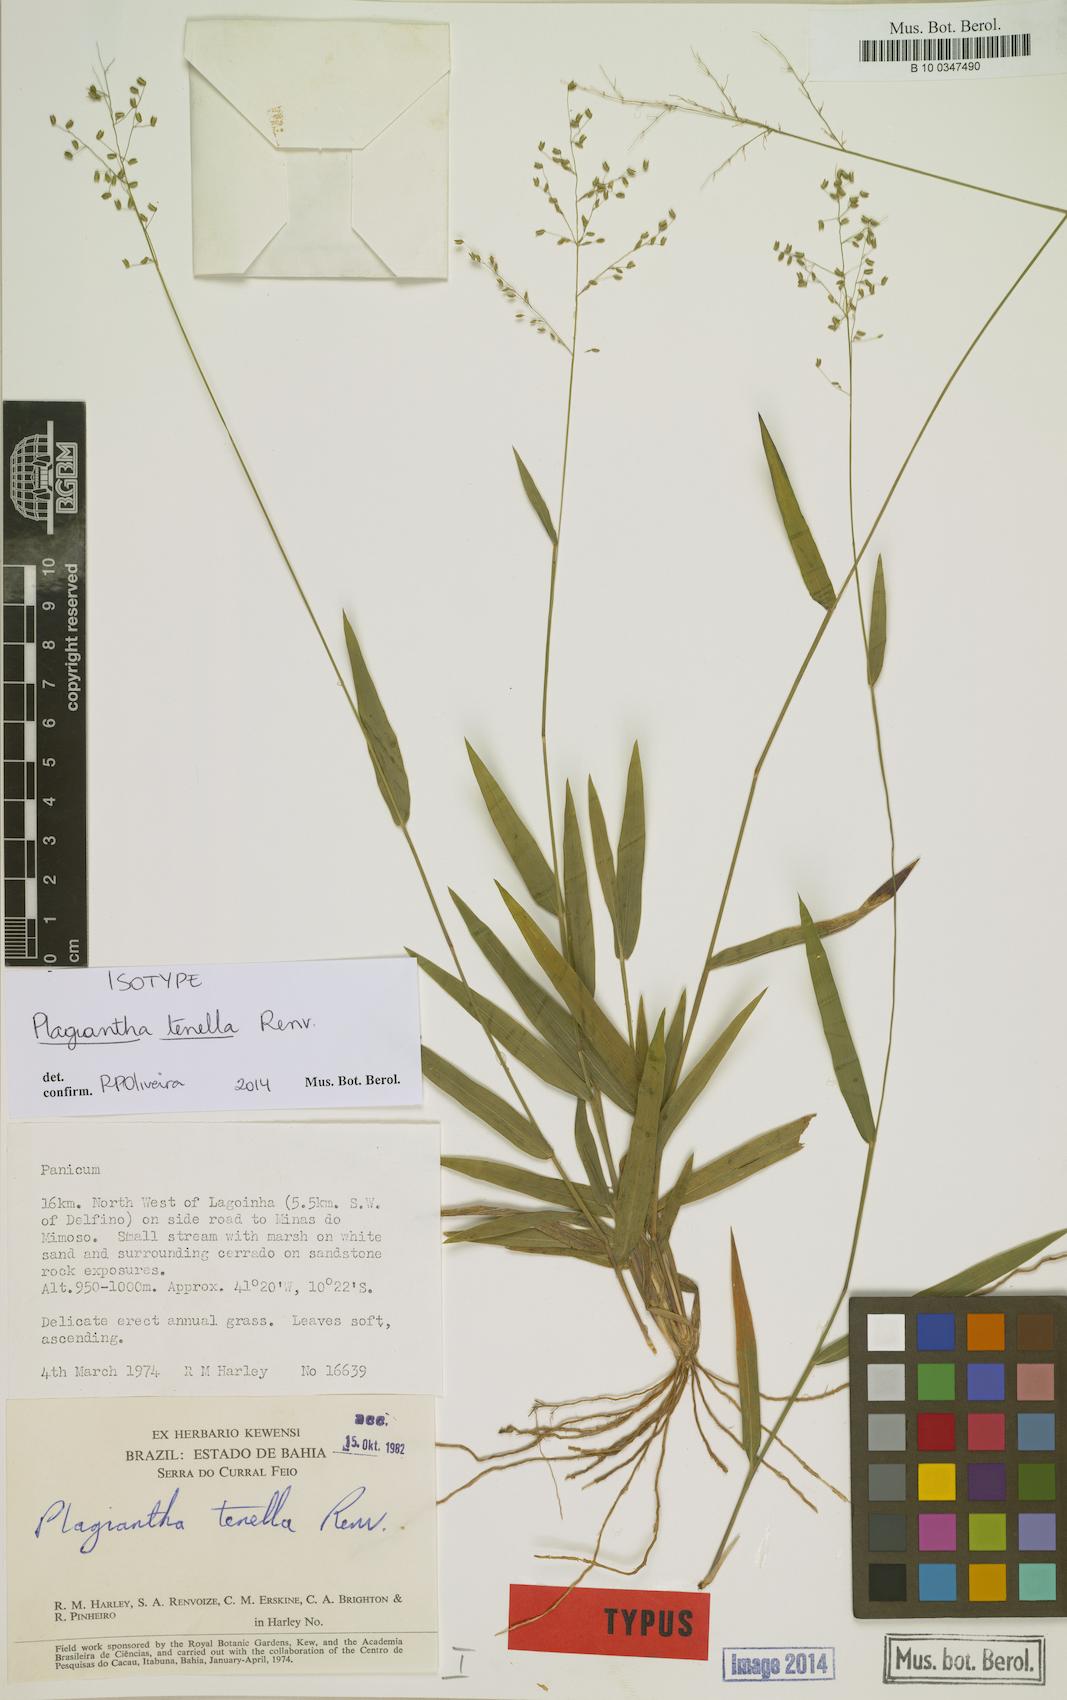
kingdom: Plantae
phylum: Tracheophyta
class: Liliopsida
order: Poales
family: Poaceae
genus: Plagiantha
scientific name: Plagiantha tenella
